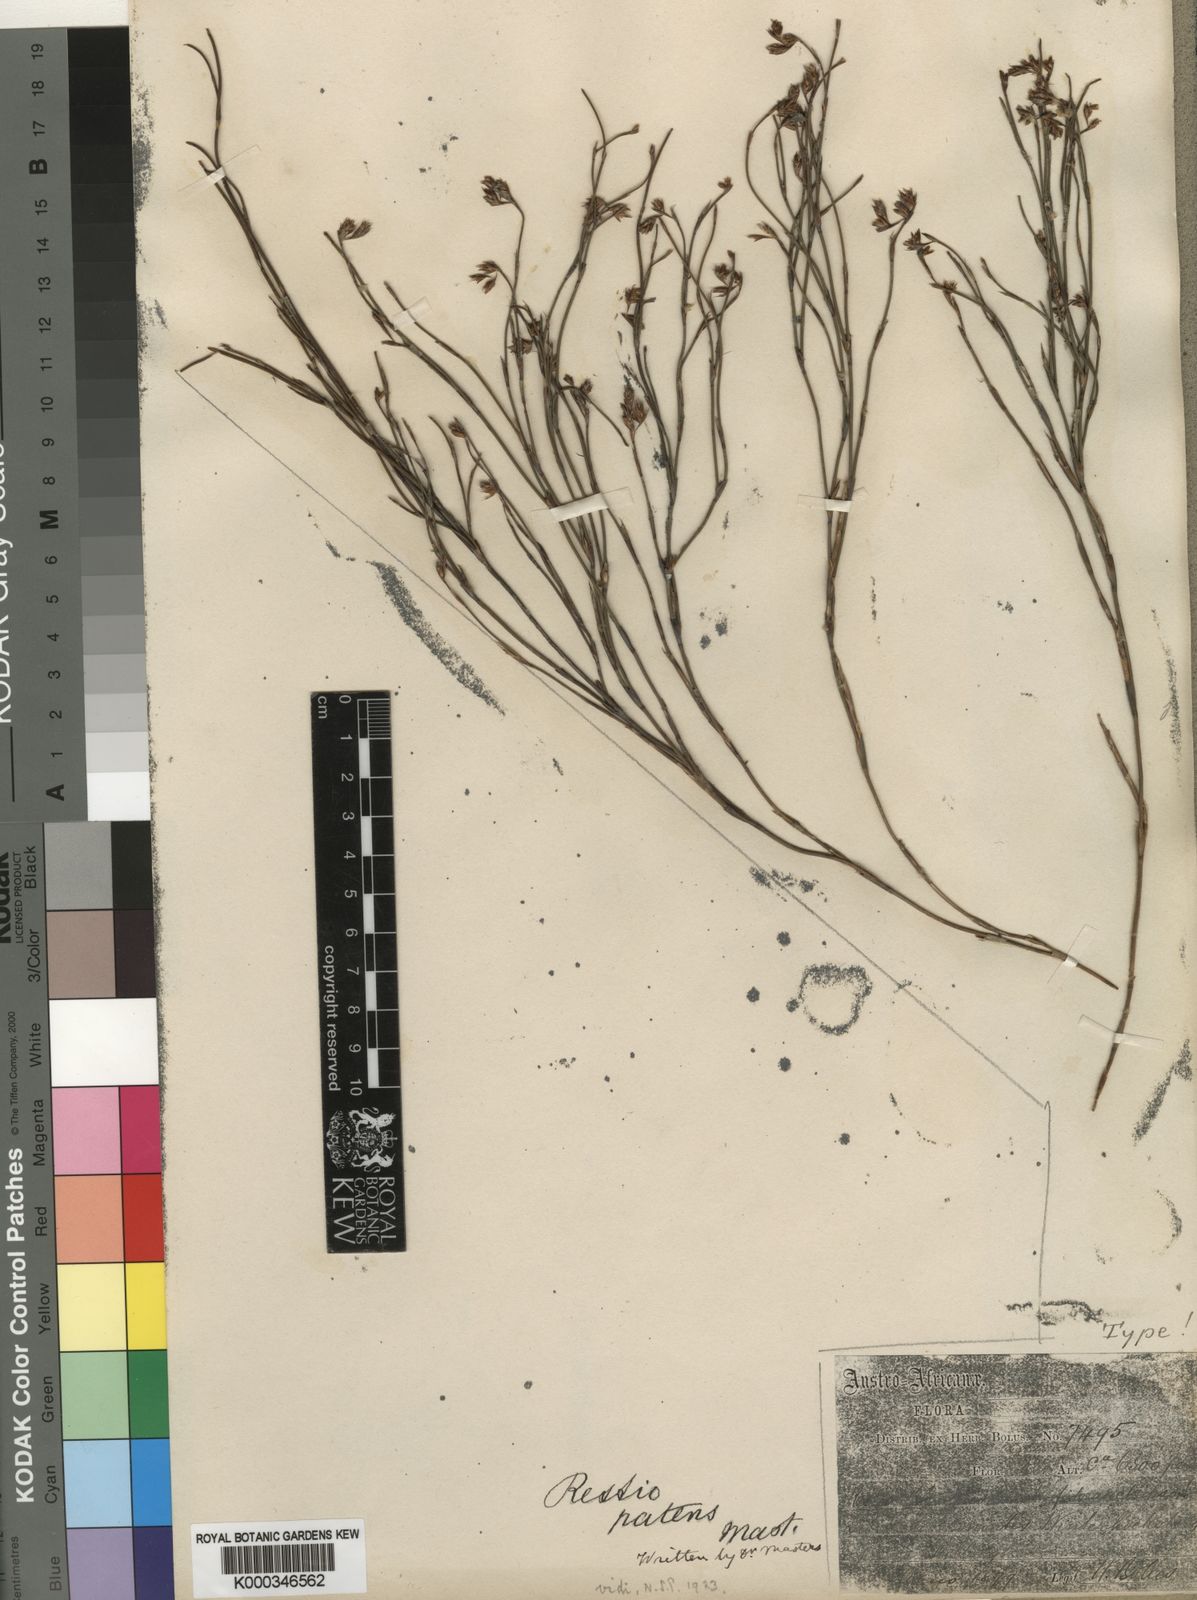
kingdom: Plantae
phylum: Tracheophyta
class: Liliopsida
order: Poales
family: Restionaceae
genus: Restio
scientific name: Restio patens
